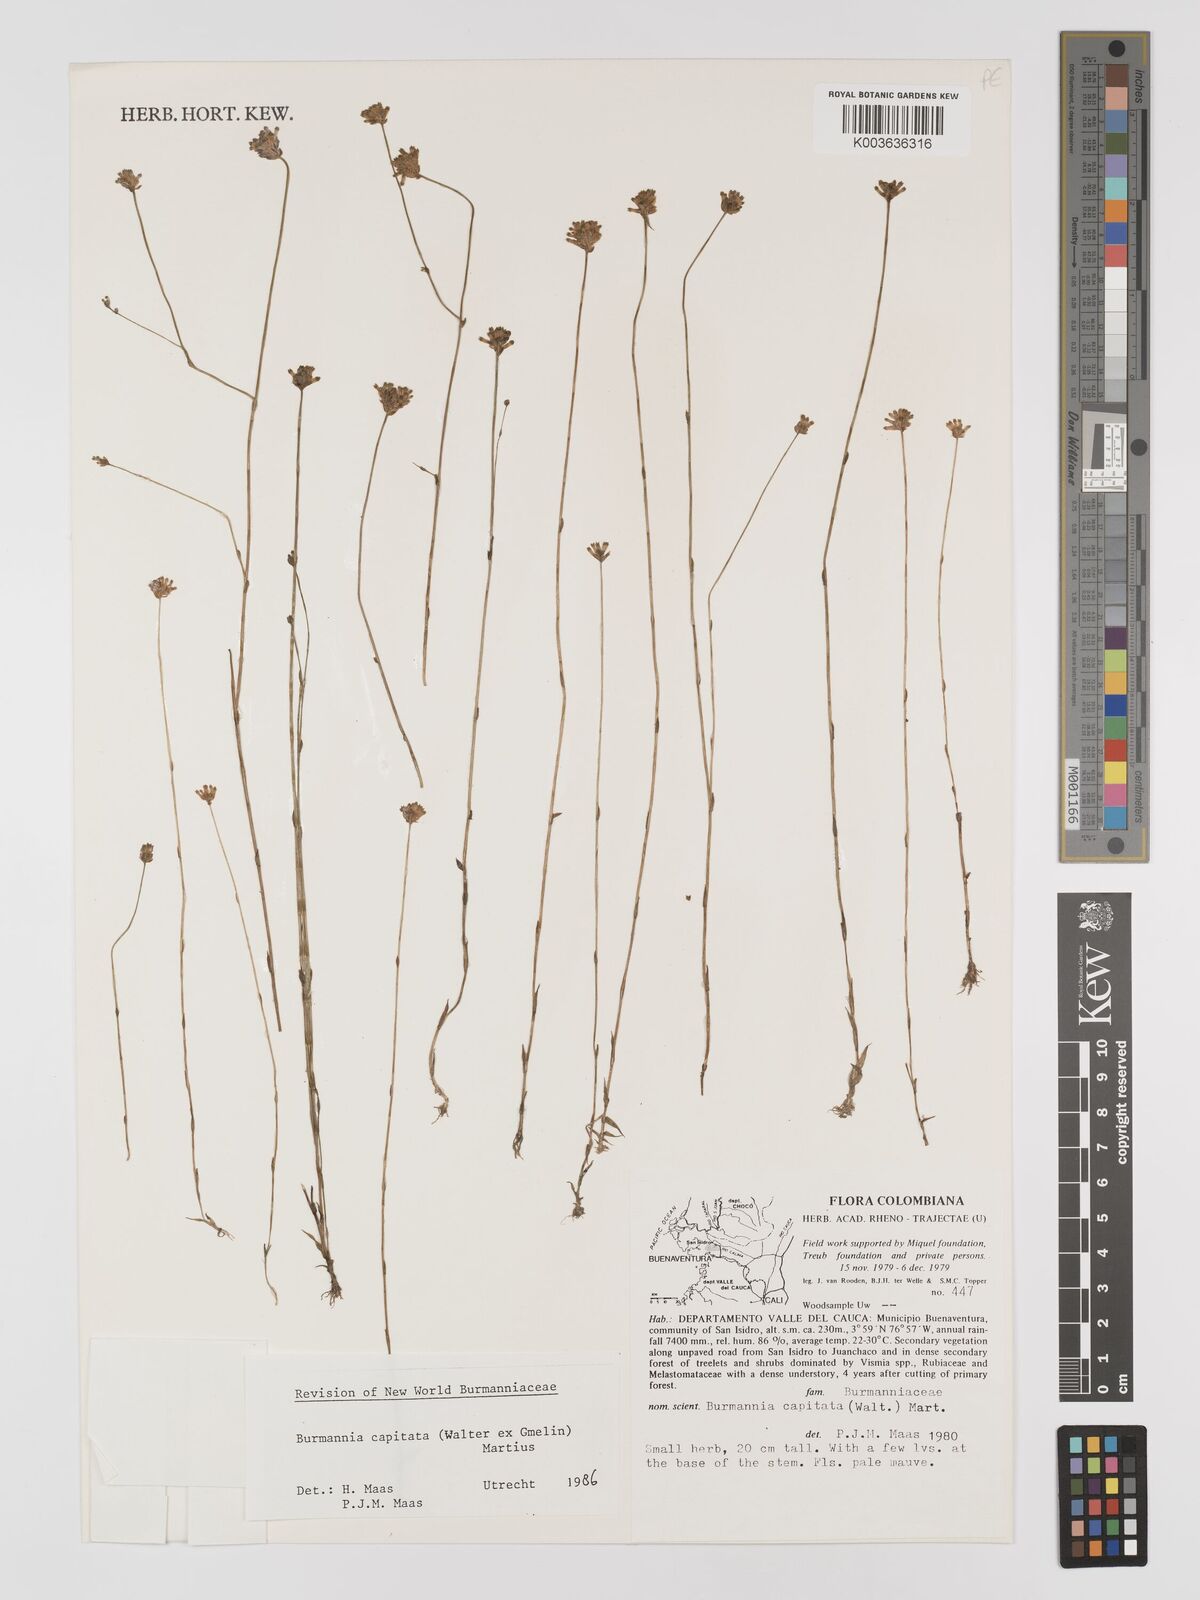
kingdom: Plantae
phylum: Tracheophyta
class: Liliopsida
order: Dioscoreales
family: Burmanniaceae
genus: Burmannia
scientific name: Burmannia capitata
